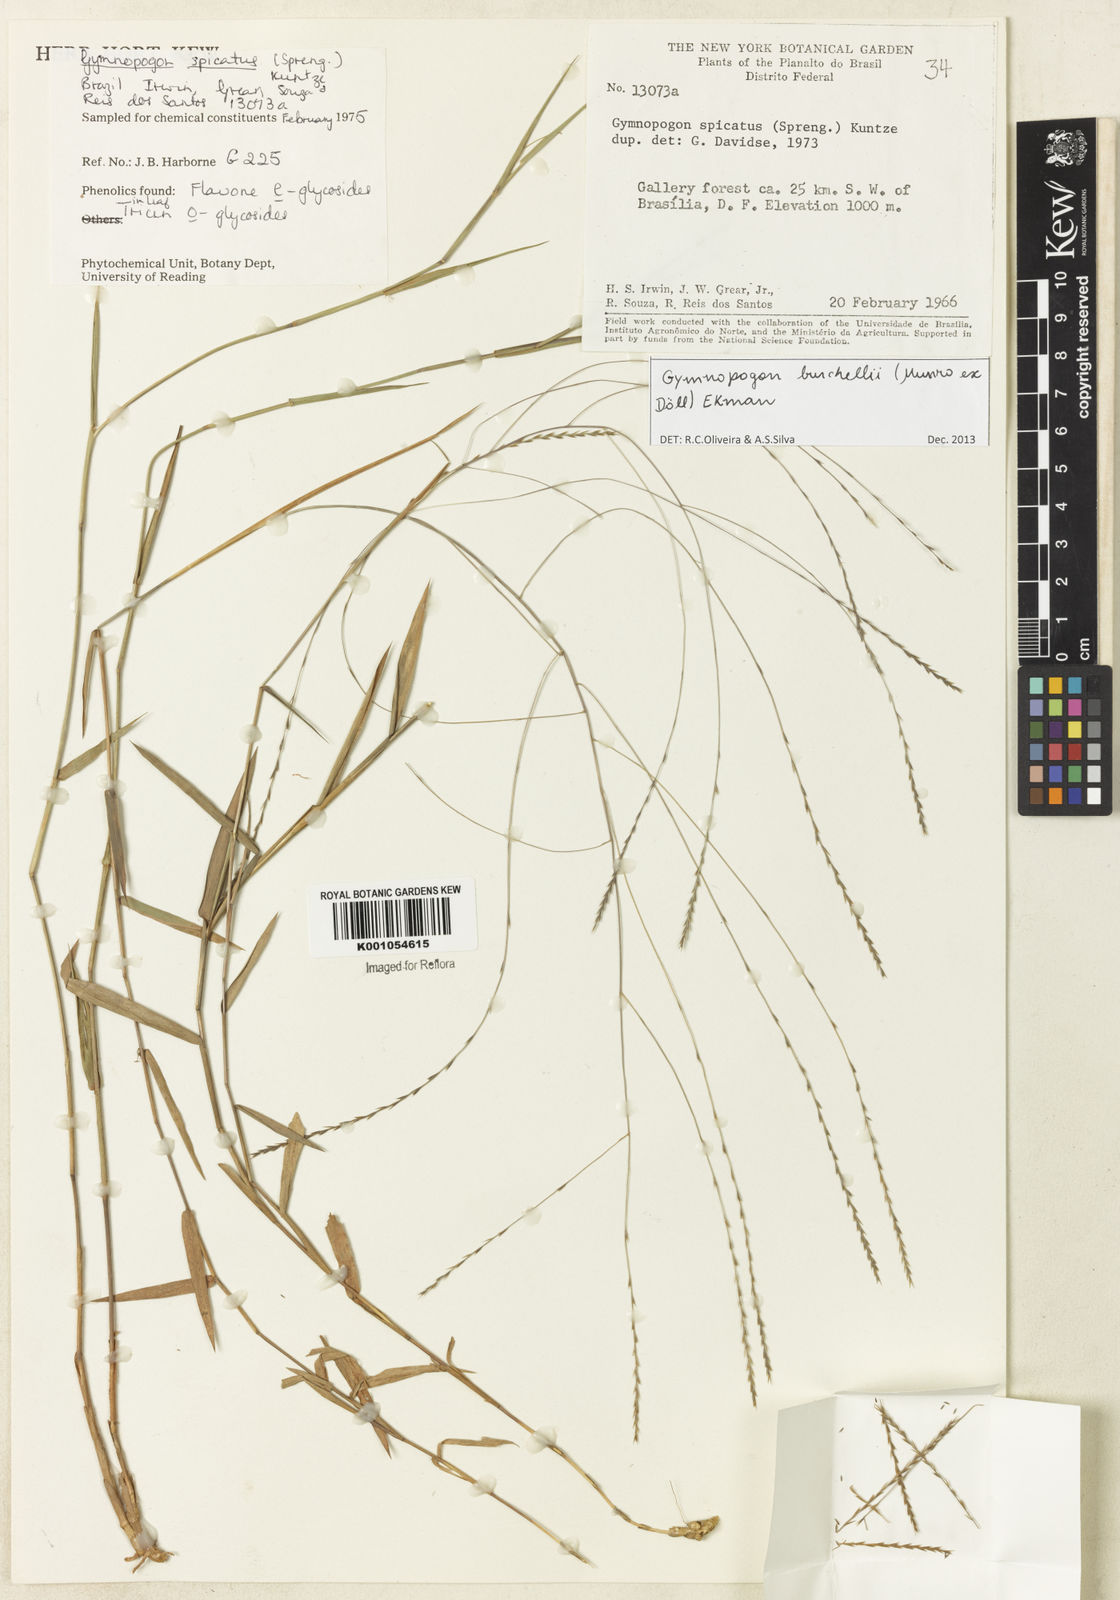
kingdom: Plantae
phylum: Tracheophyta
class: Liliopsida
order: Poales
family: Poaceae
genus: Gymnopogon
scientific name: Gymnopogon
